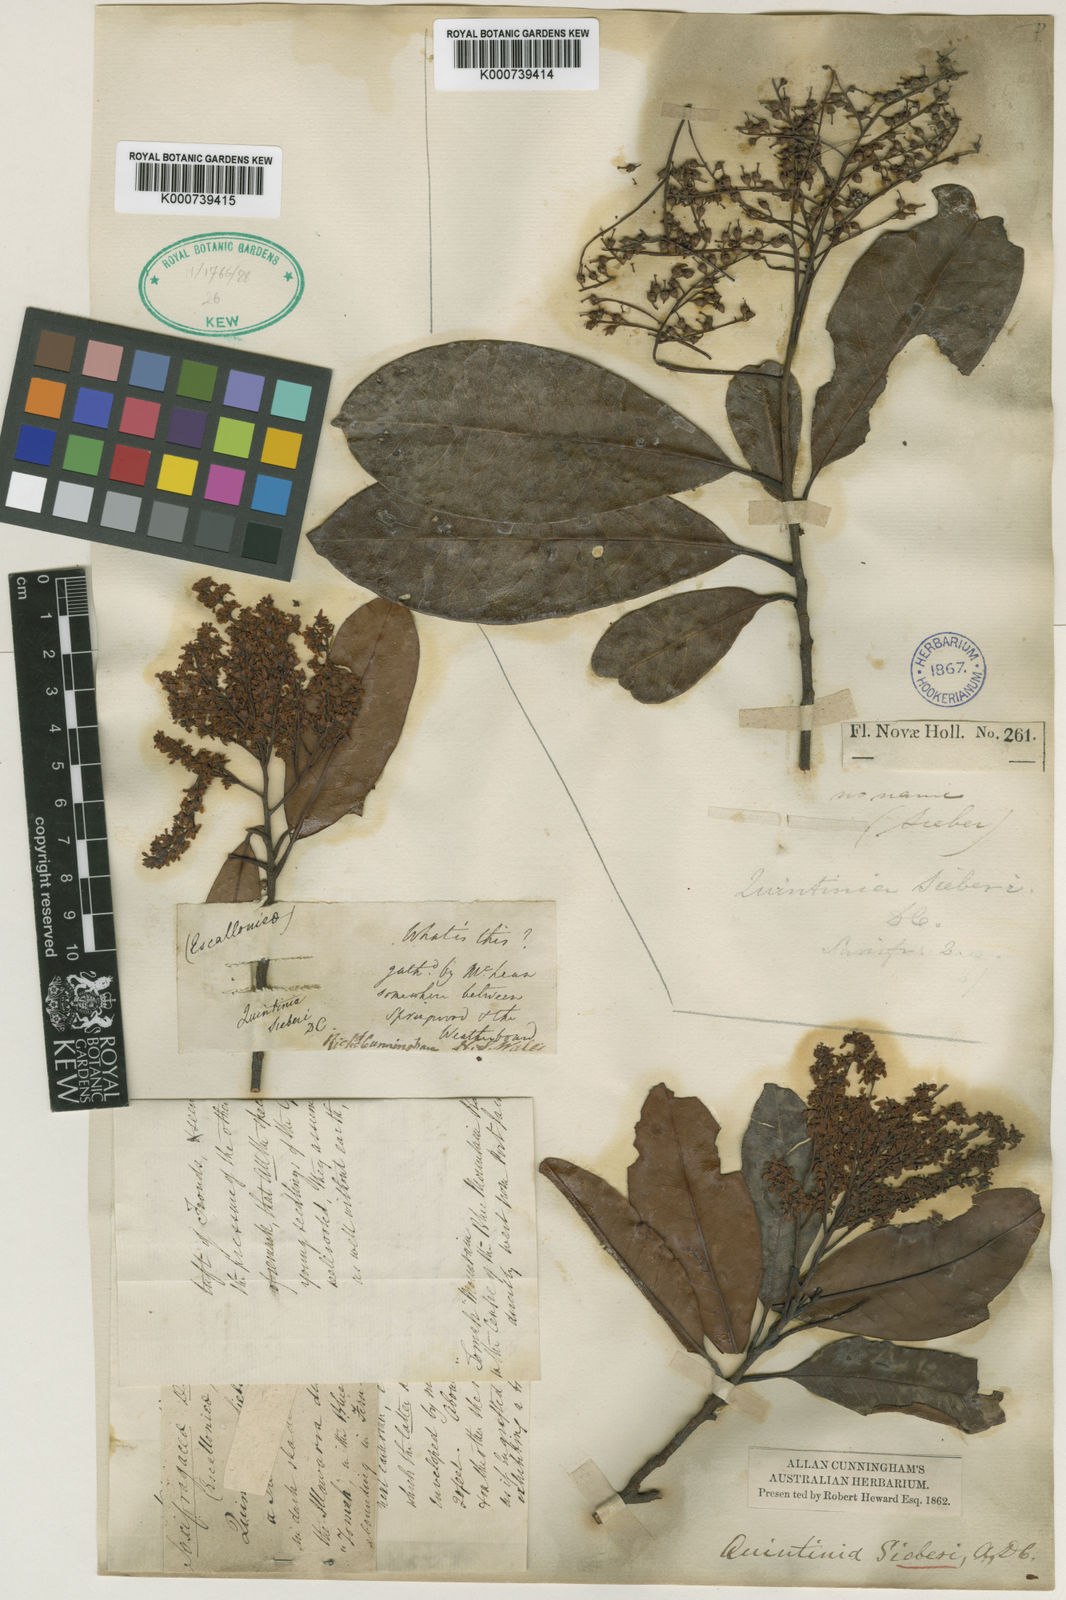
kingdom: Plantae
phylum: Tracheophyta
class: Magnoliopsida
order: Paracryphiales
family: Paracryphiaceae
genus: Quintinia
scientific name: Quintinia sieberi
